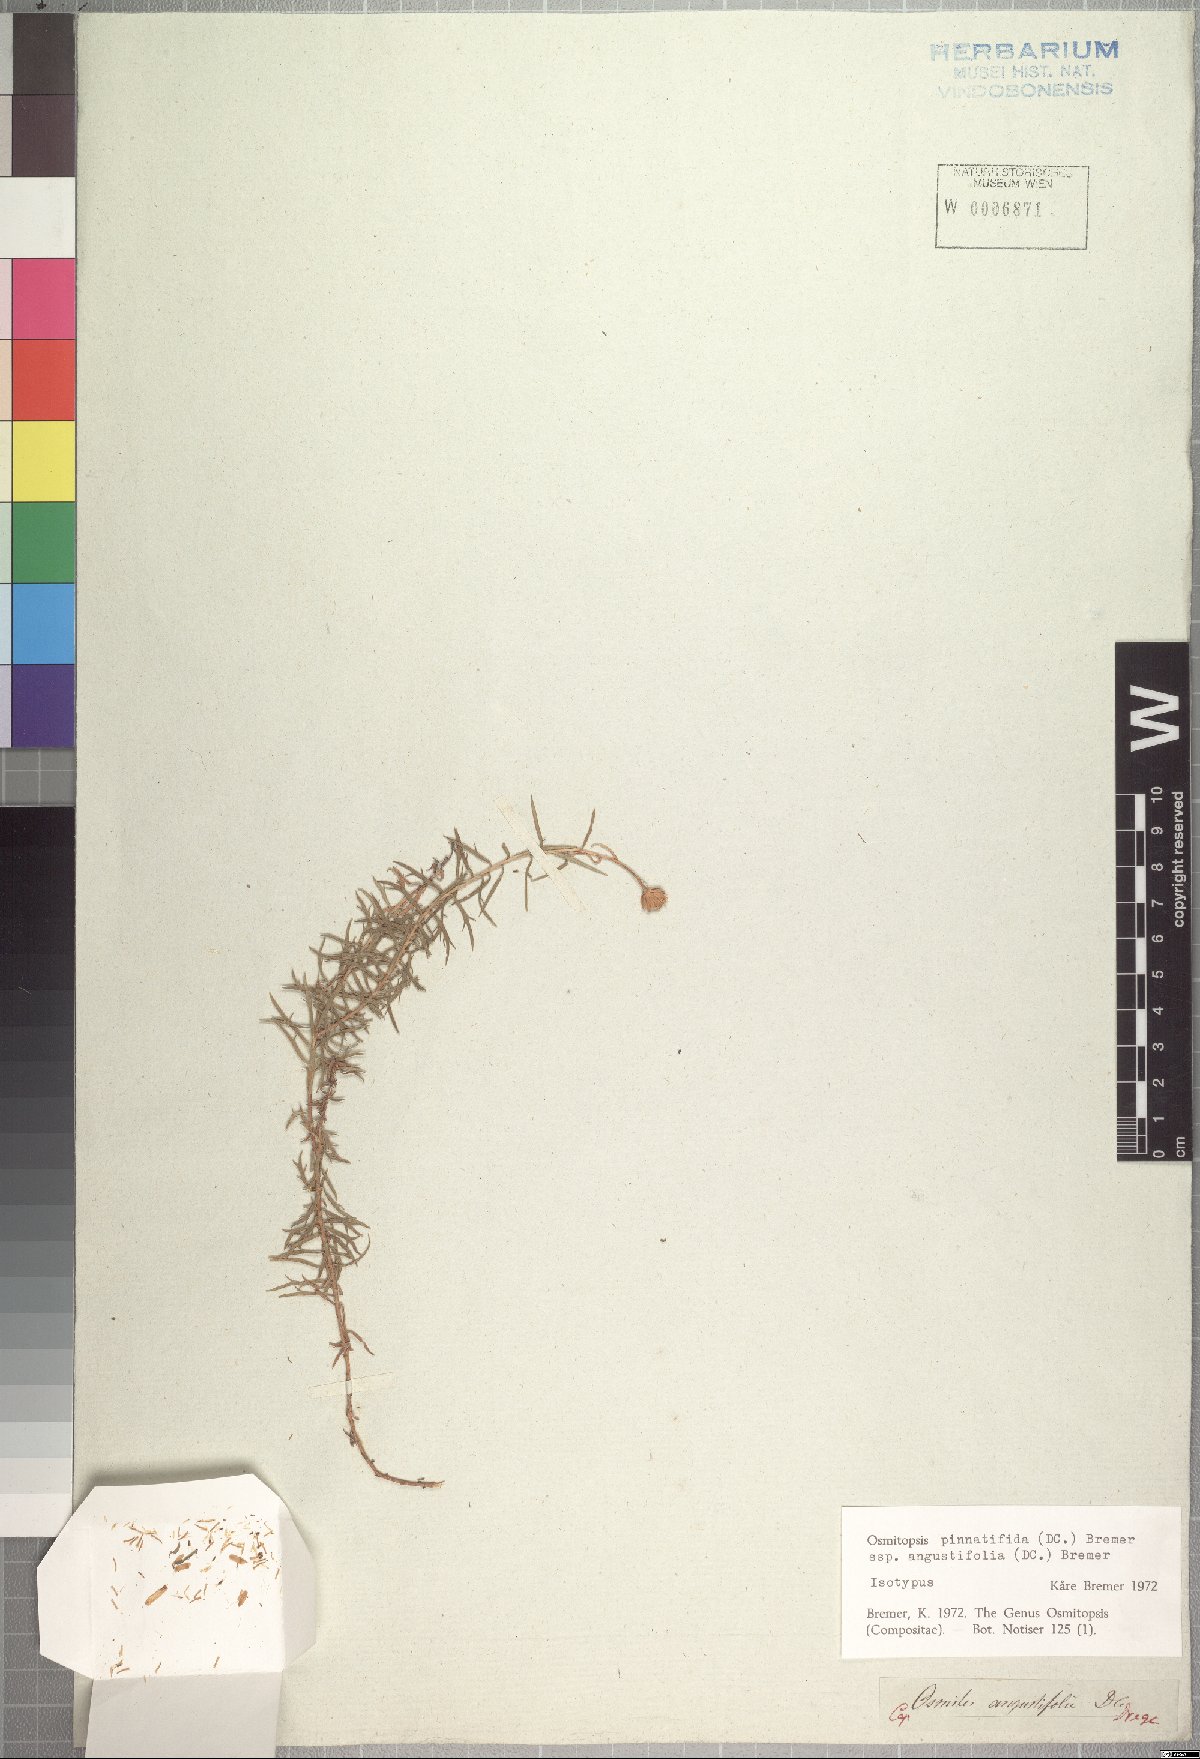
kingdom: Plantae
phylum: Tracheophyta
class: Magnoliopsida
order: Asterales
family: Asteraceae
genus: Osmitopsis
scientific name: Osmitopsis pinnatifida
